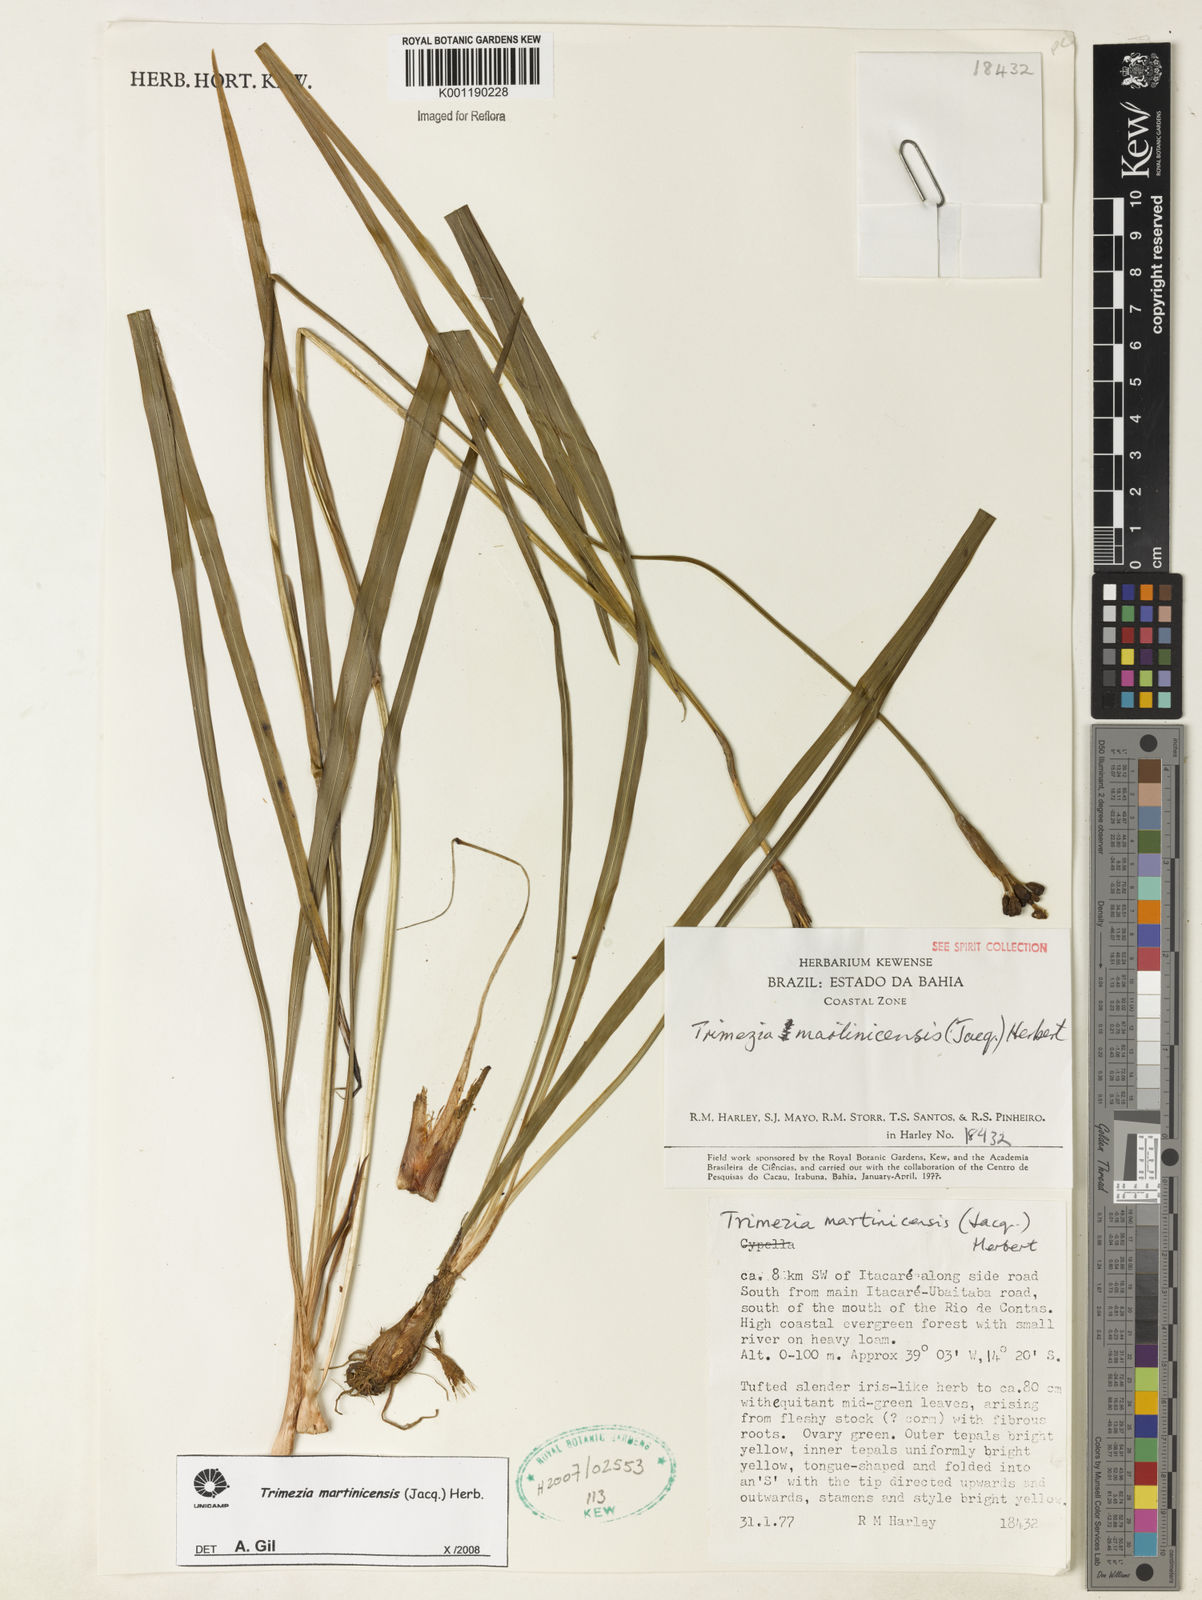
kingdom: Plantae
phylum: Tracheophyta
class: Liliopsida
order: Asparagales
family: Iridaceae
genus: Trimezia
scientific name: Trimezia martinicensis
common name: Martinique trimezia
